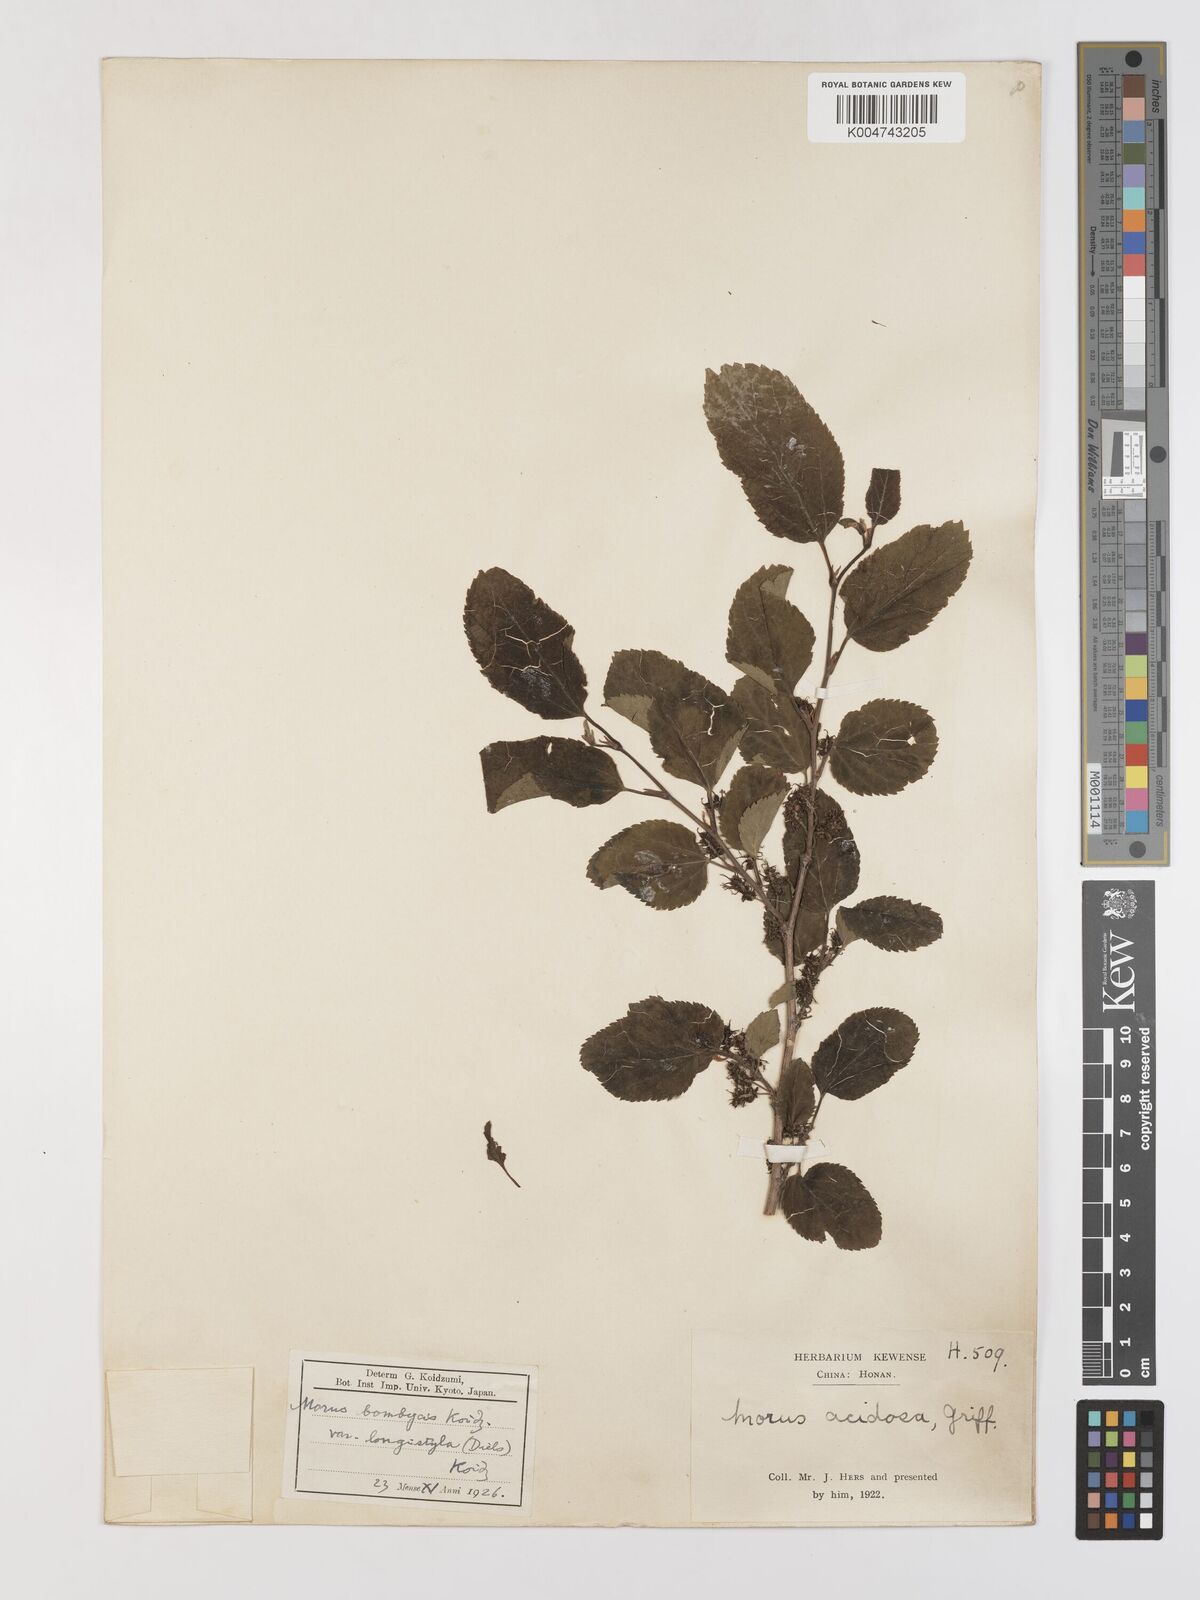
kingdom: Plantae
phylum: Tracheophyta
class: Magnoliopsida
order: Rosales
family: Moraceae
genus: Morus
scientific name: Morus indica
